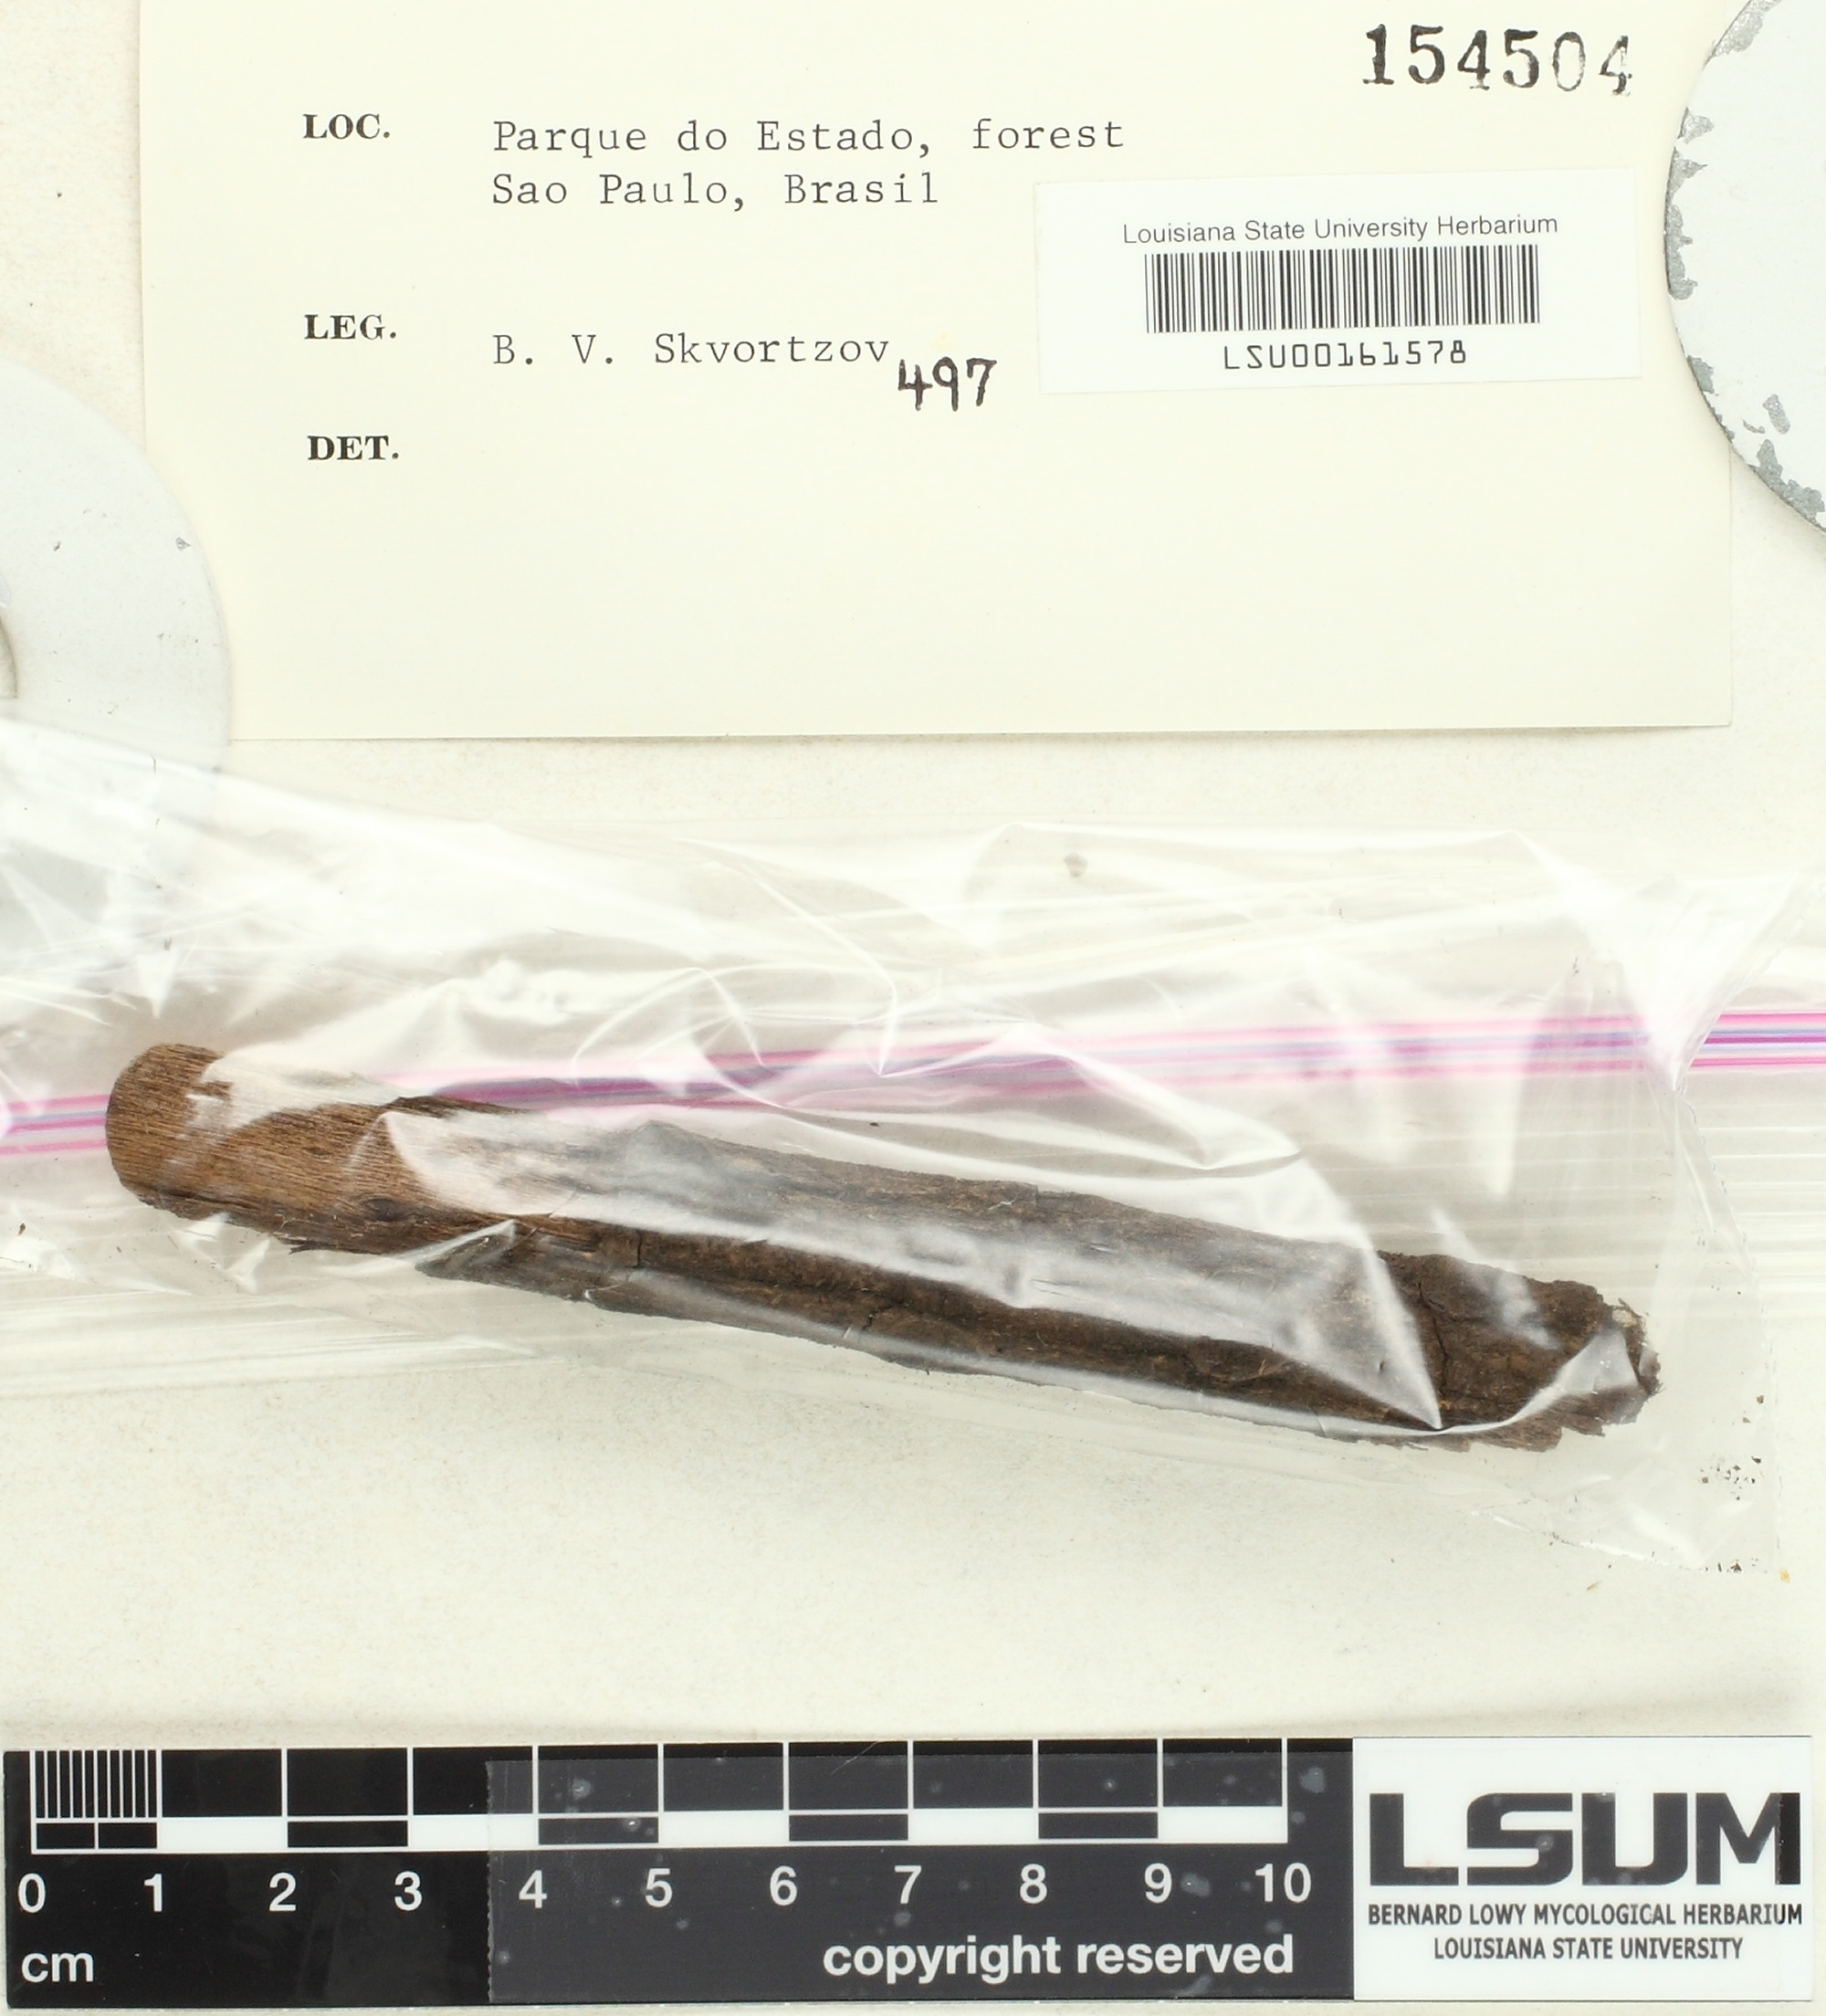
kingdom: Fungi
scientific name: Fungi
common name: Fungi
